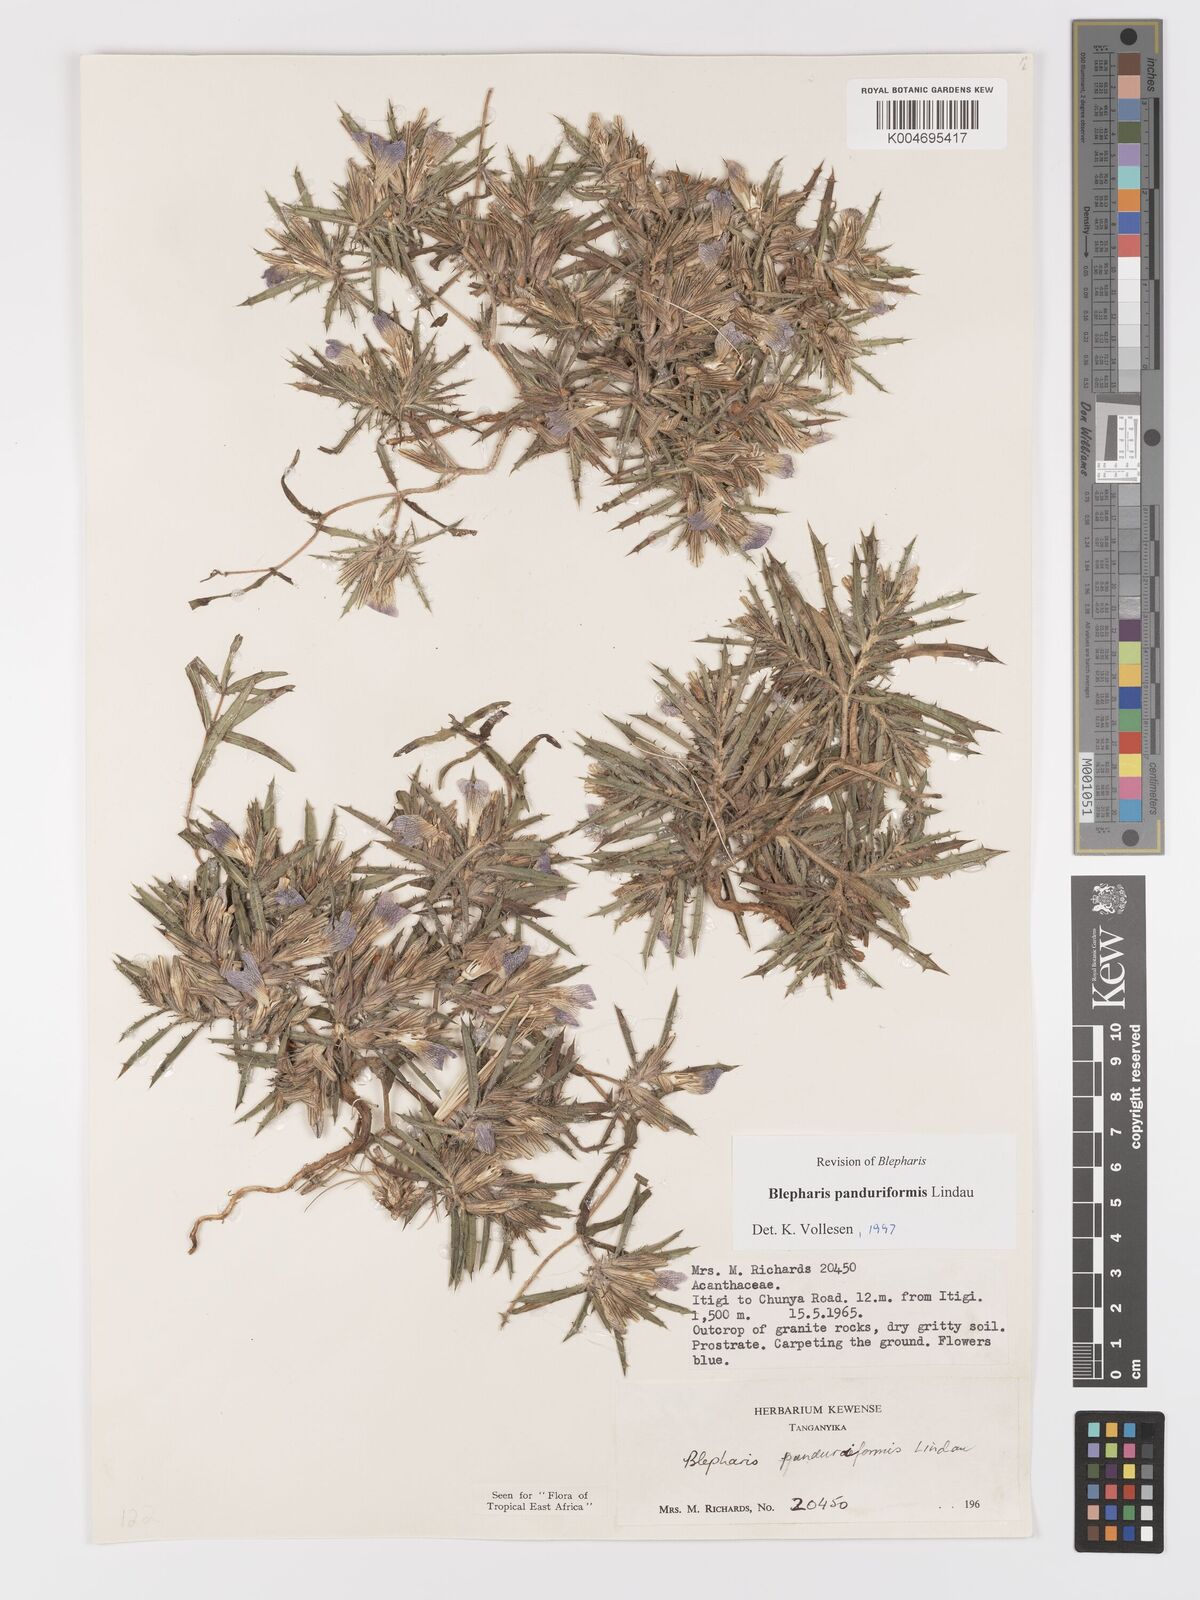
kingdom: Plantae
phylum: Tracheophyta
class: Magnoliopsida
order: Lamiales
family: Acanthaceae
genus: Blepharis
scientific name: Blepharis panduriformis
